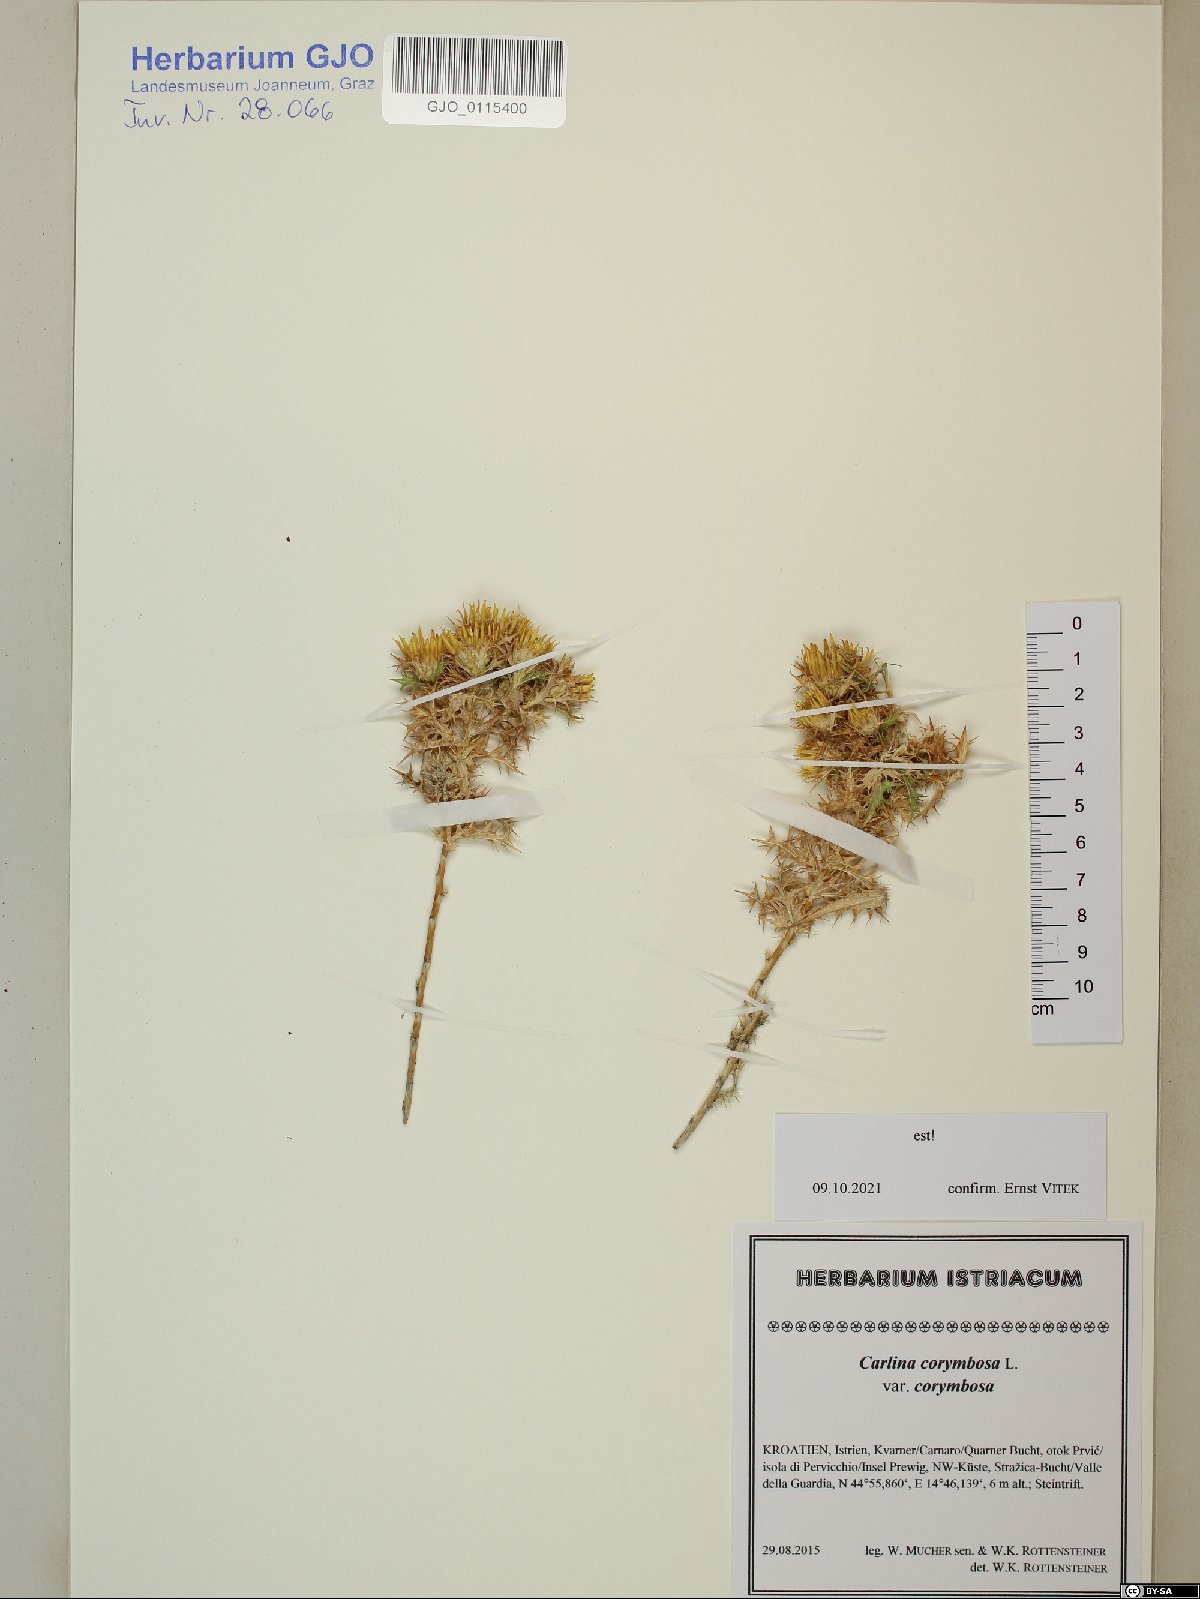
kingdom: Plantae
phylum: Tracheophyta
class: Magnoliopsida
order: Asterales
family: Asteraceae
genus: Carlina
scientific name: Carlina corymbosa
